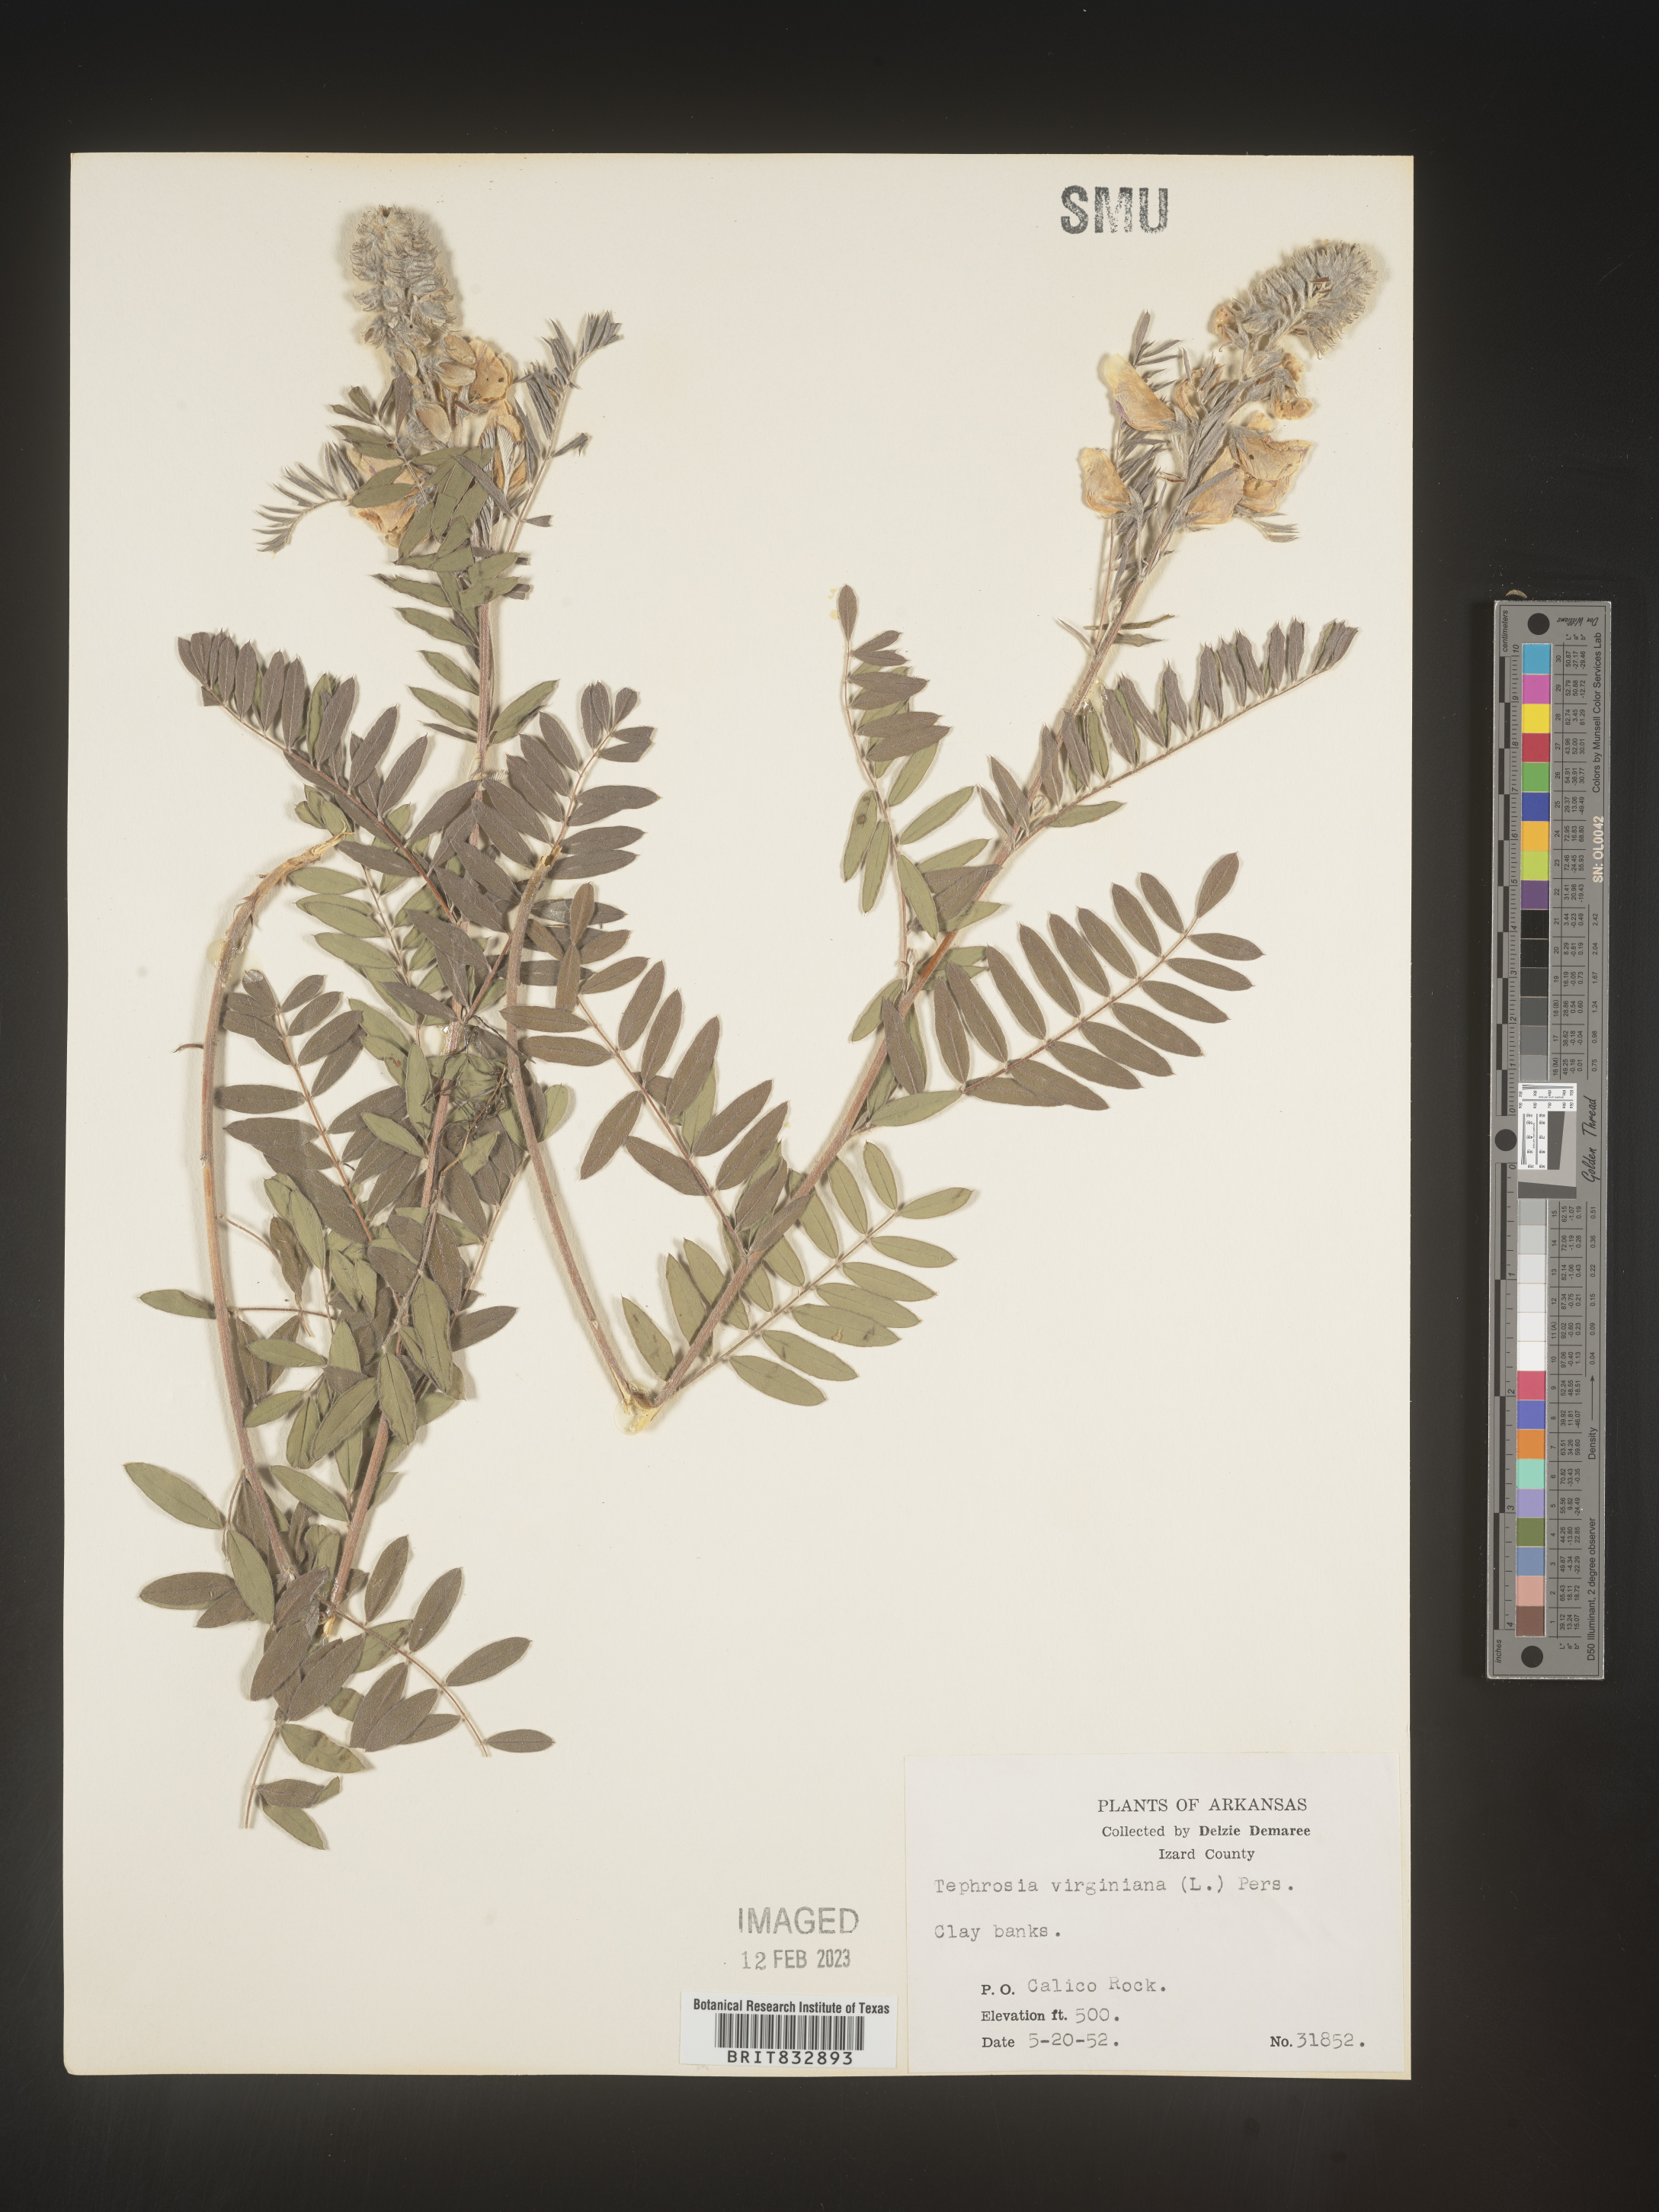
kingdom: Plantae
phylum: Tracheophyta
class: Magnoliopsida
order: Fabales
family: Fabaceae
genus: Tephrosia
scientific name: Tephrosia virginiana
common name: Rabbit-pea
